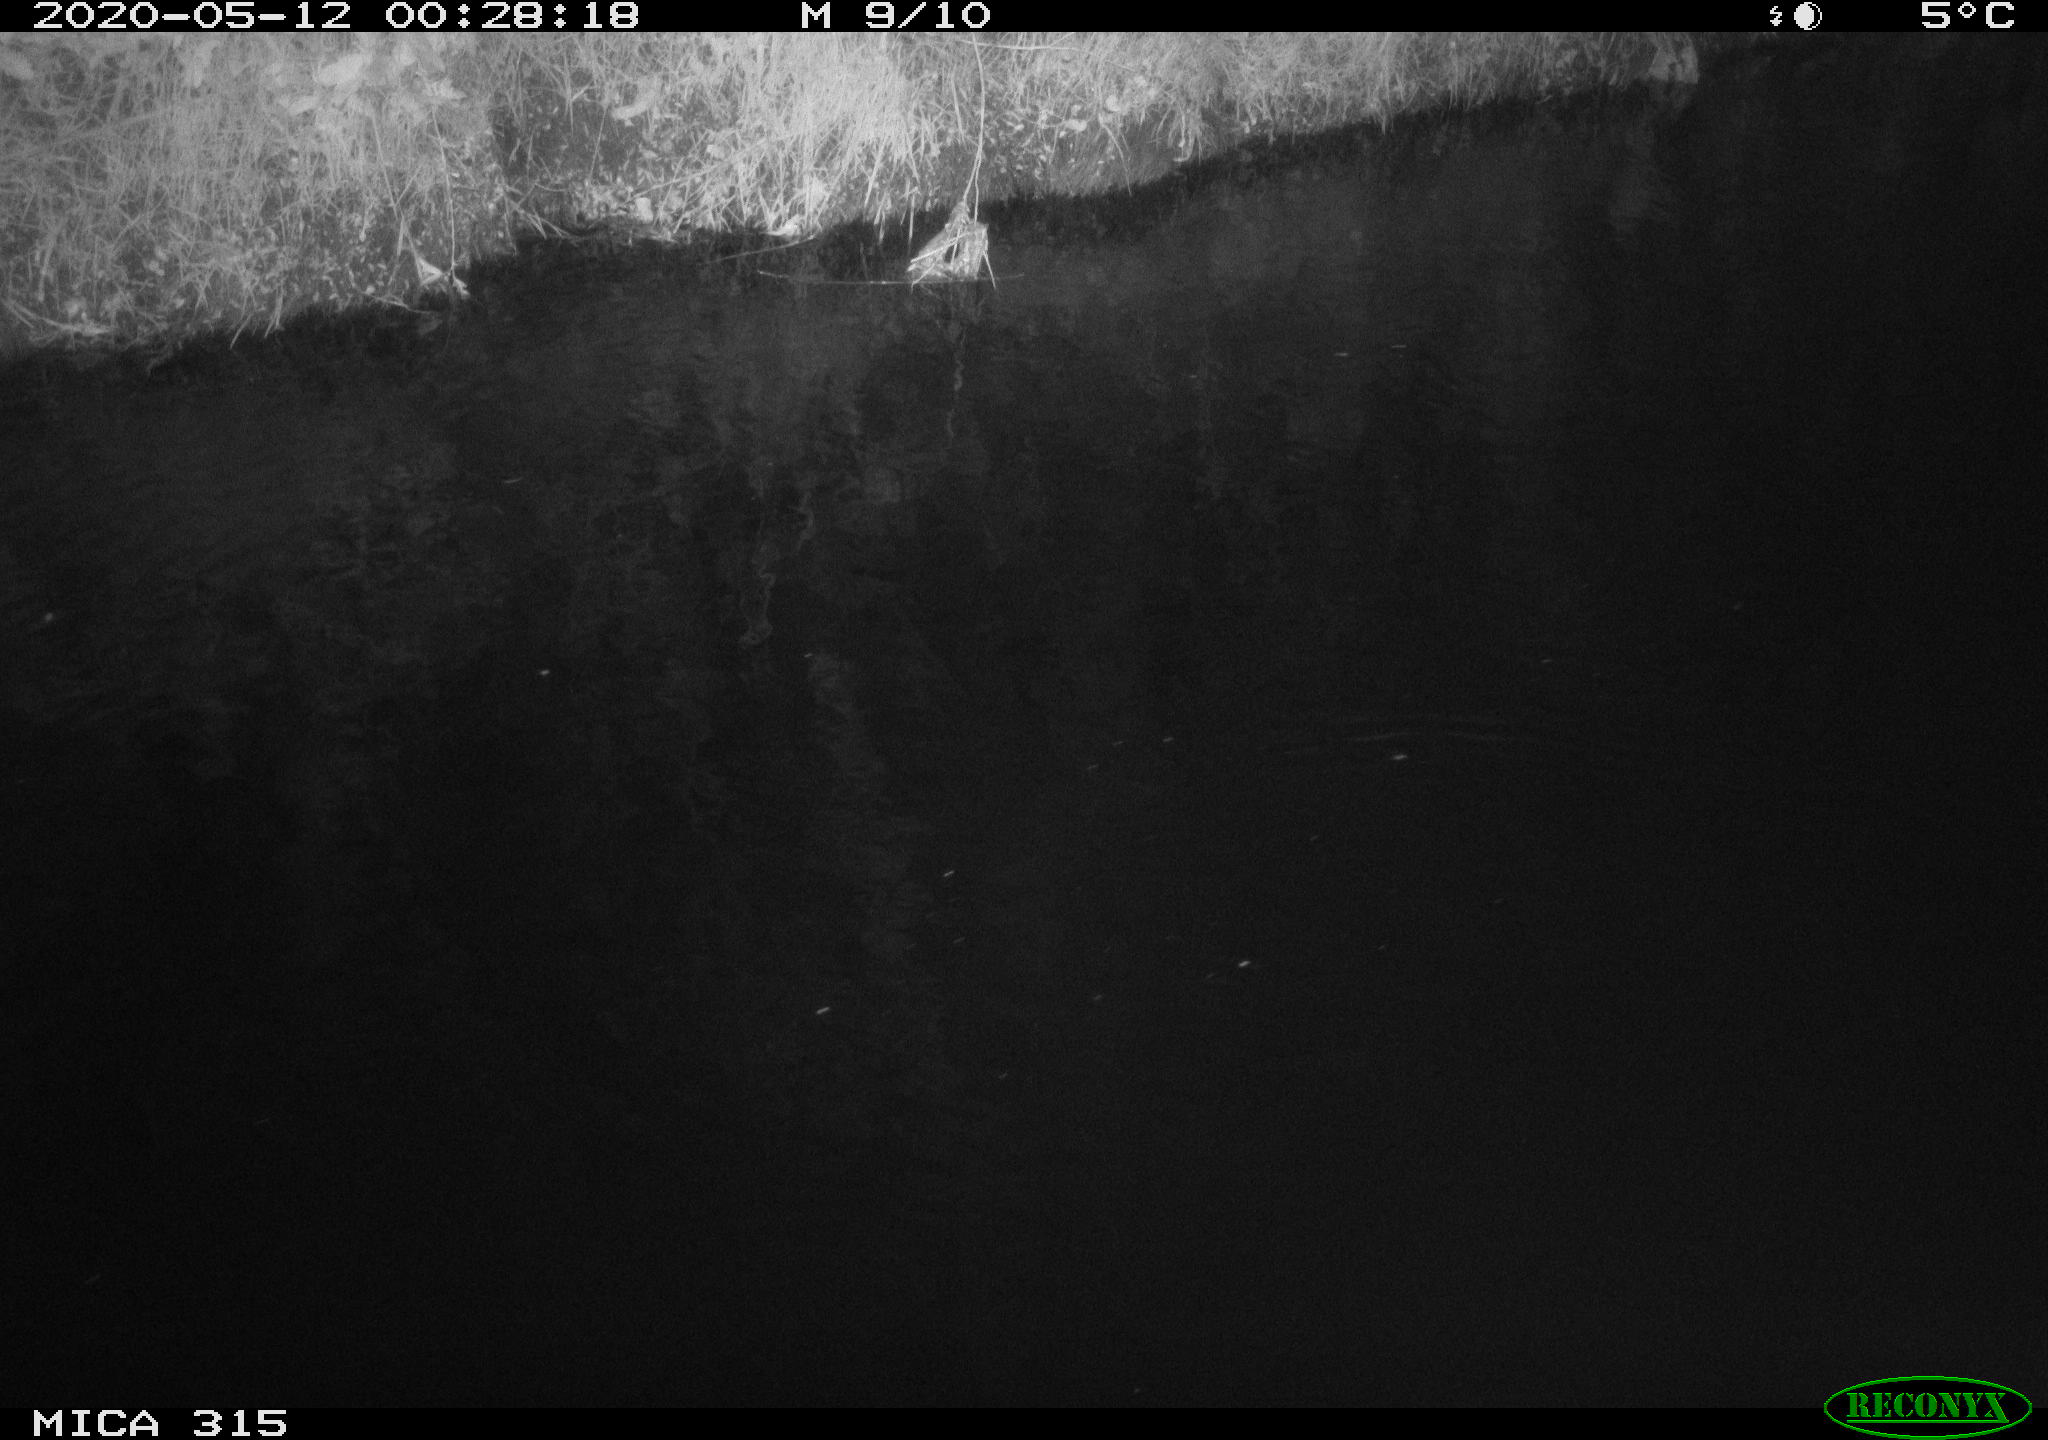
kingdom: Animalia
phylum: Chordata
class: Aves
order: Anseriformes
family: Anatidae
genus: Anas
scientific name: Anas platyrhynchos
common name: Mallard
